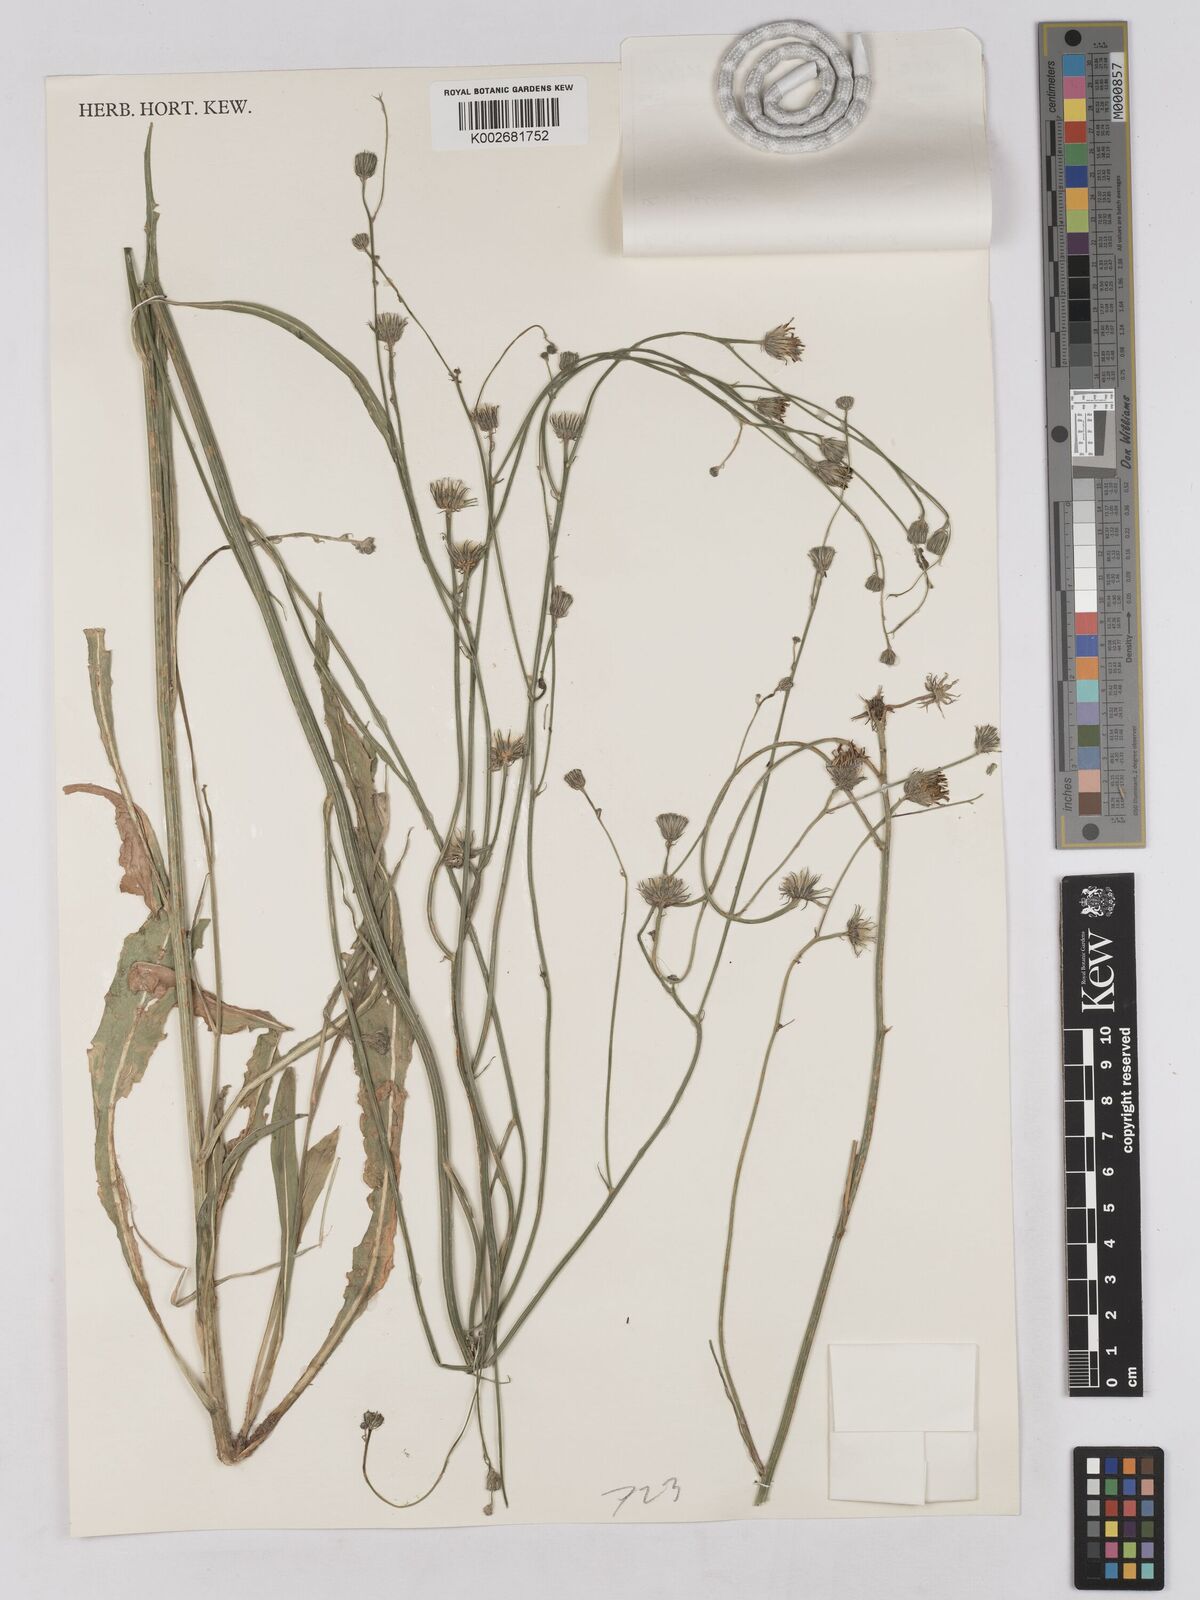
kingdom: Plantae
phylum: Tracheophyta
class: Magnoliopsida
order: Asterales
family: Asteraceae
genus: Tolpis
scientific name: Tolpis virgata
